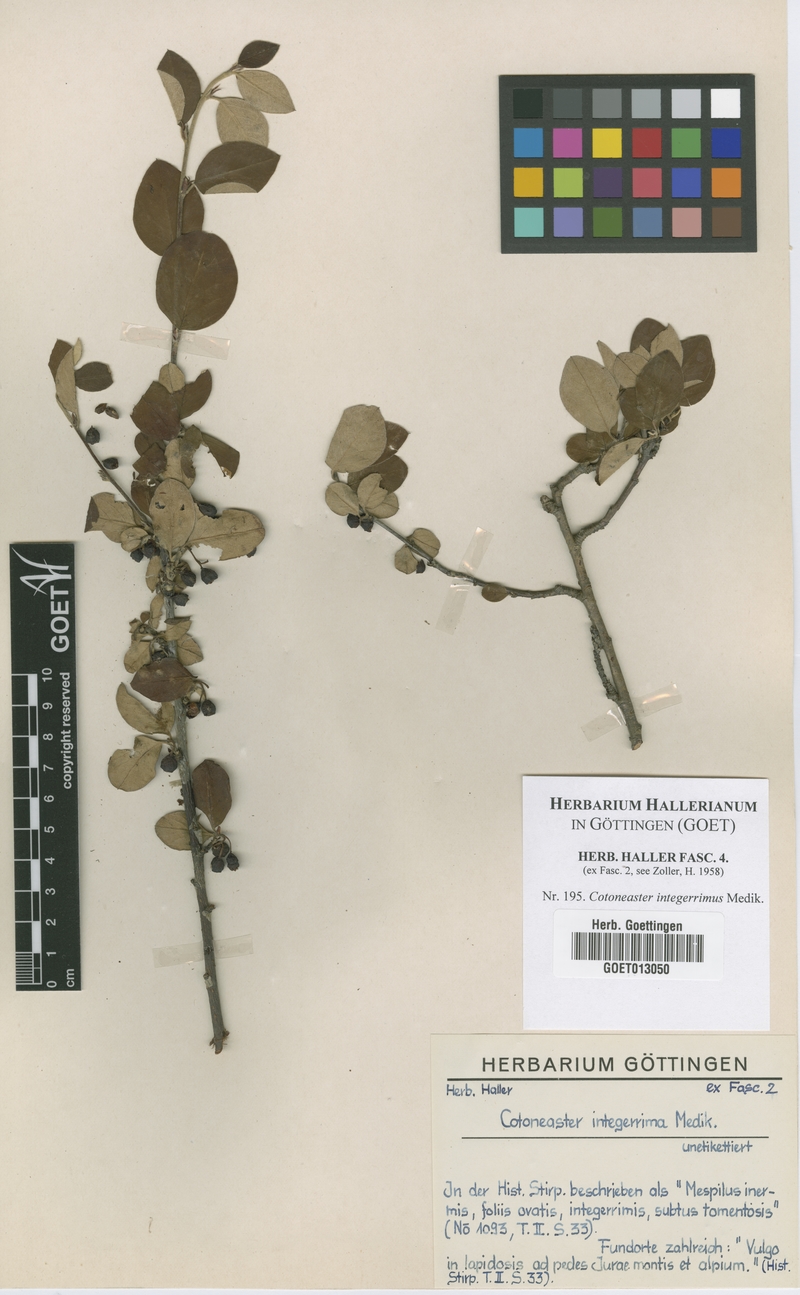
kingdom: Plantae
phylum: Tracheophyta
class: Magnoliopsida
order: Rosales
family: Rosaceae
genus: Cotoneaster
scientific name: Cotoneaster integerrimus
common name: Wild cotoneaster
